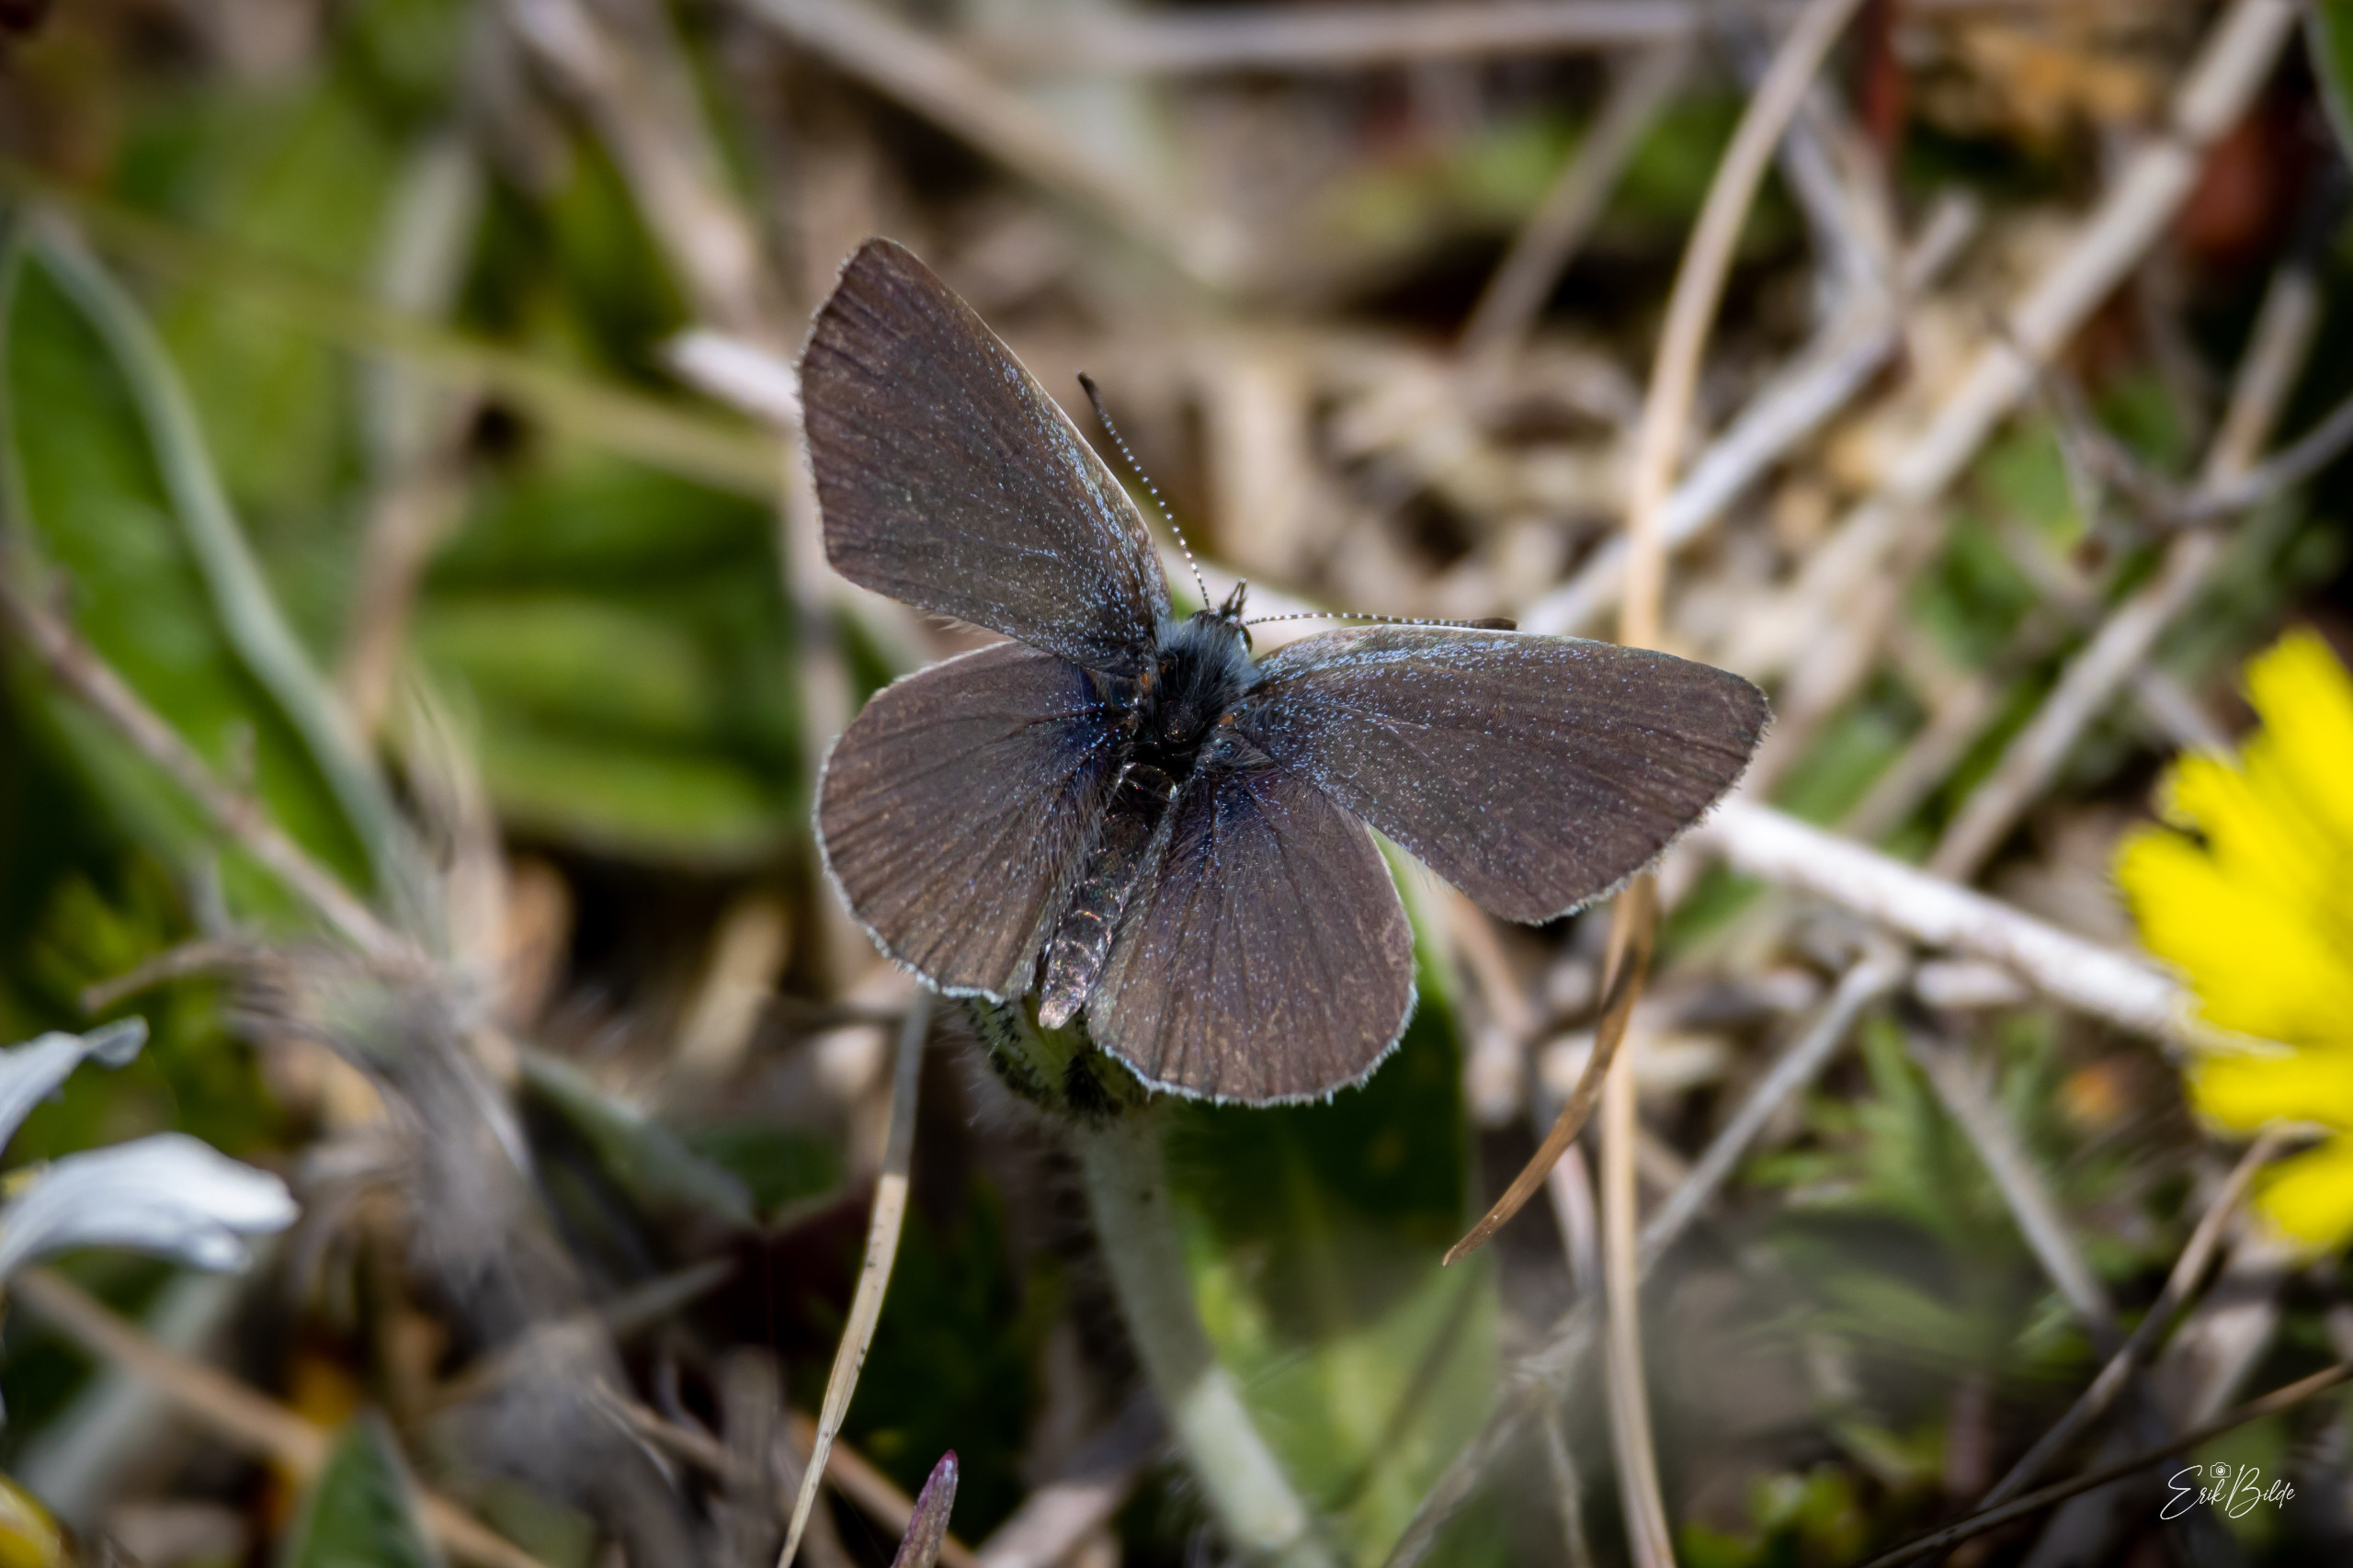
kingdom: Animalia
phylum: Arthropoda
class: Insecta
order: Lepidoptera
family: Lycaenidae
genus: Cupido
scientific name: Cupido minimus
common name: Dværgblåfugl
